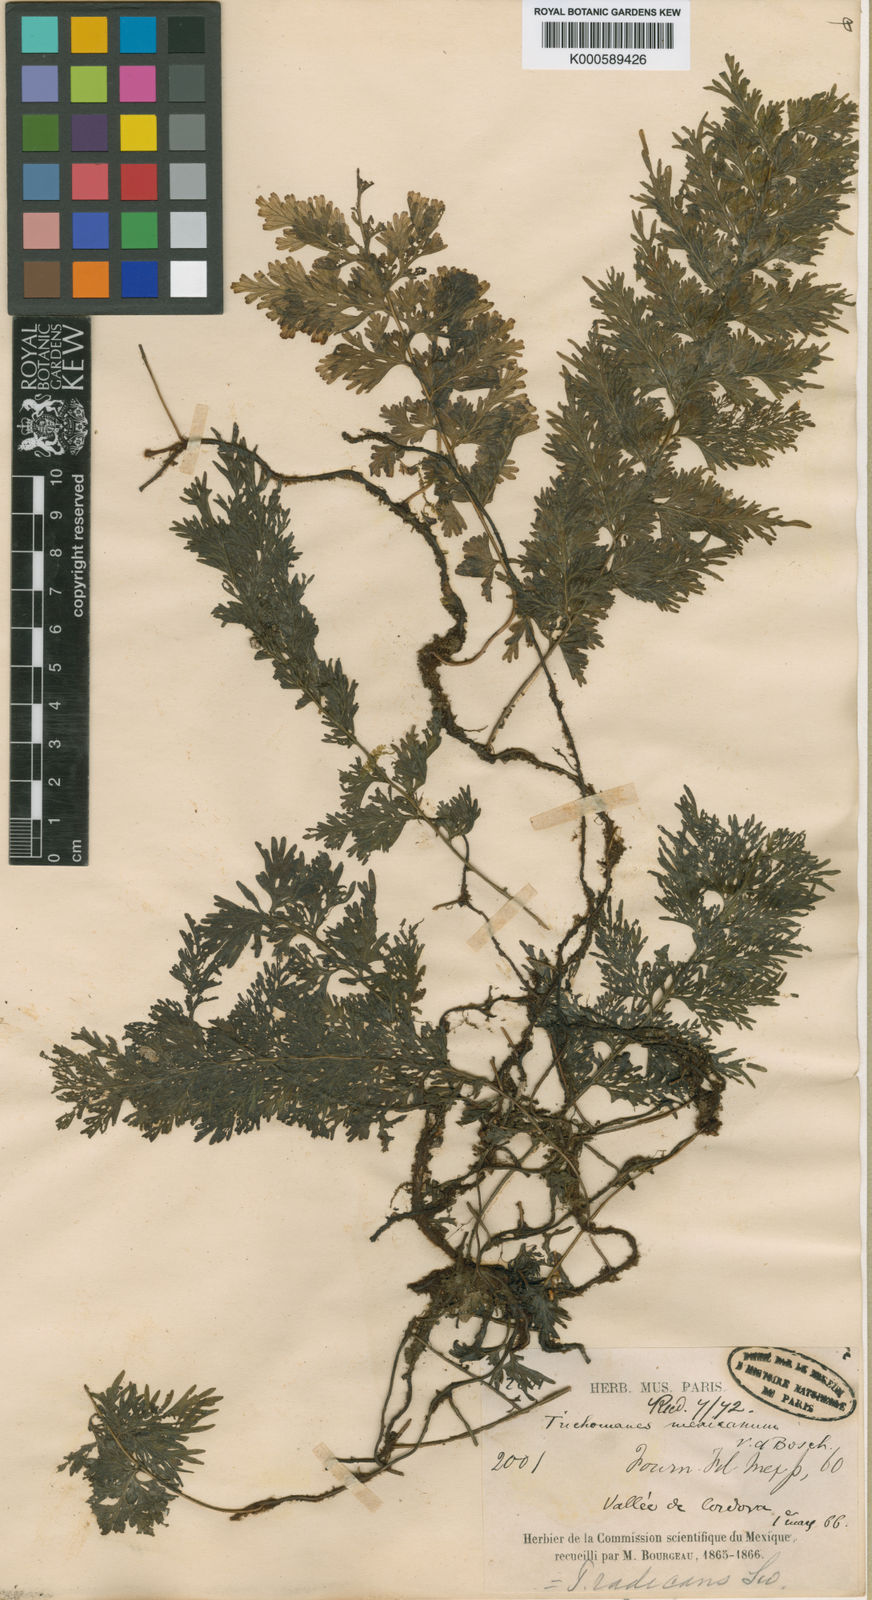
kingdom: Plantae
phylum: Tracheophyta
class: Polypodiopsida
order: Hymenophyllales
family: Hymenophyllaceae
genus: Vandenboschia
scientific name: Vandenboschia radicans
